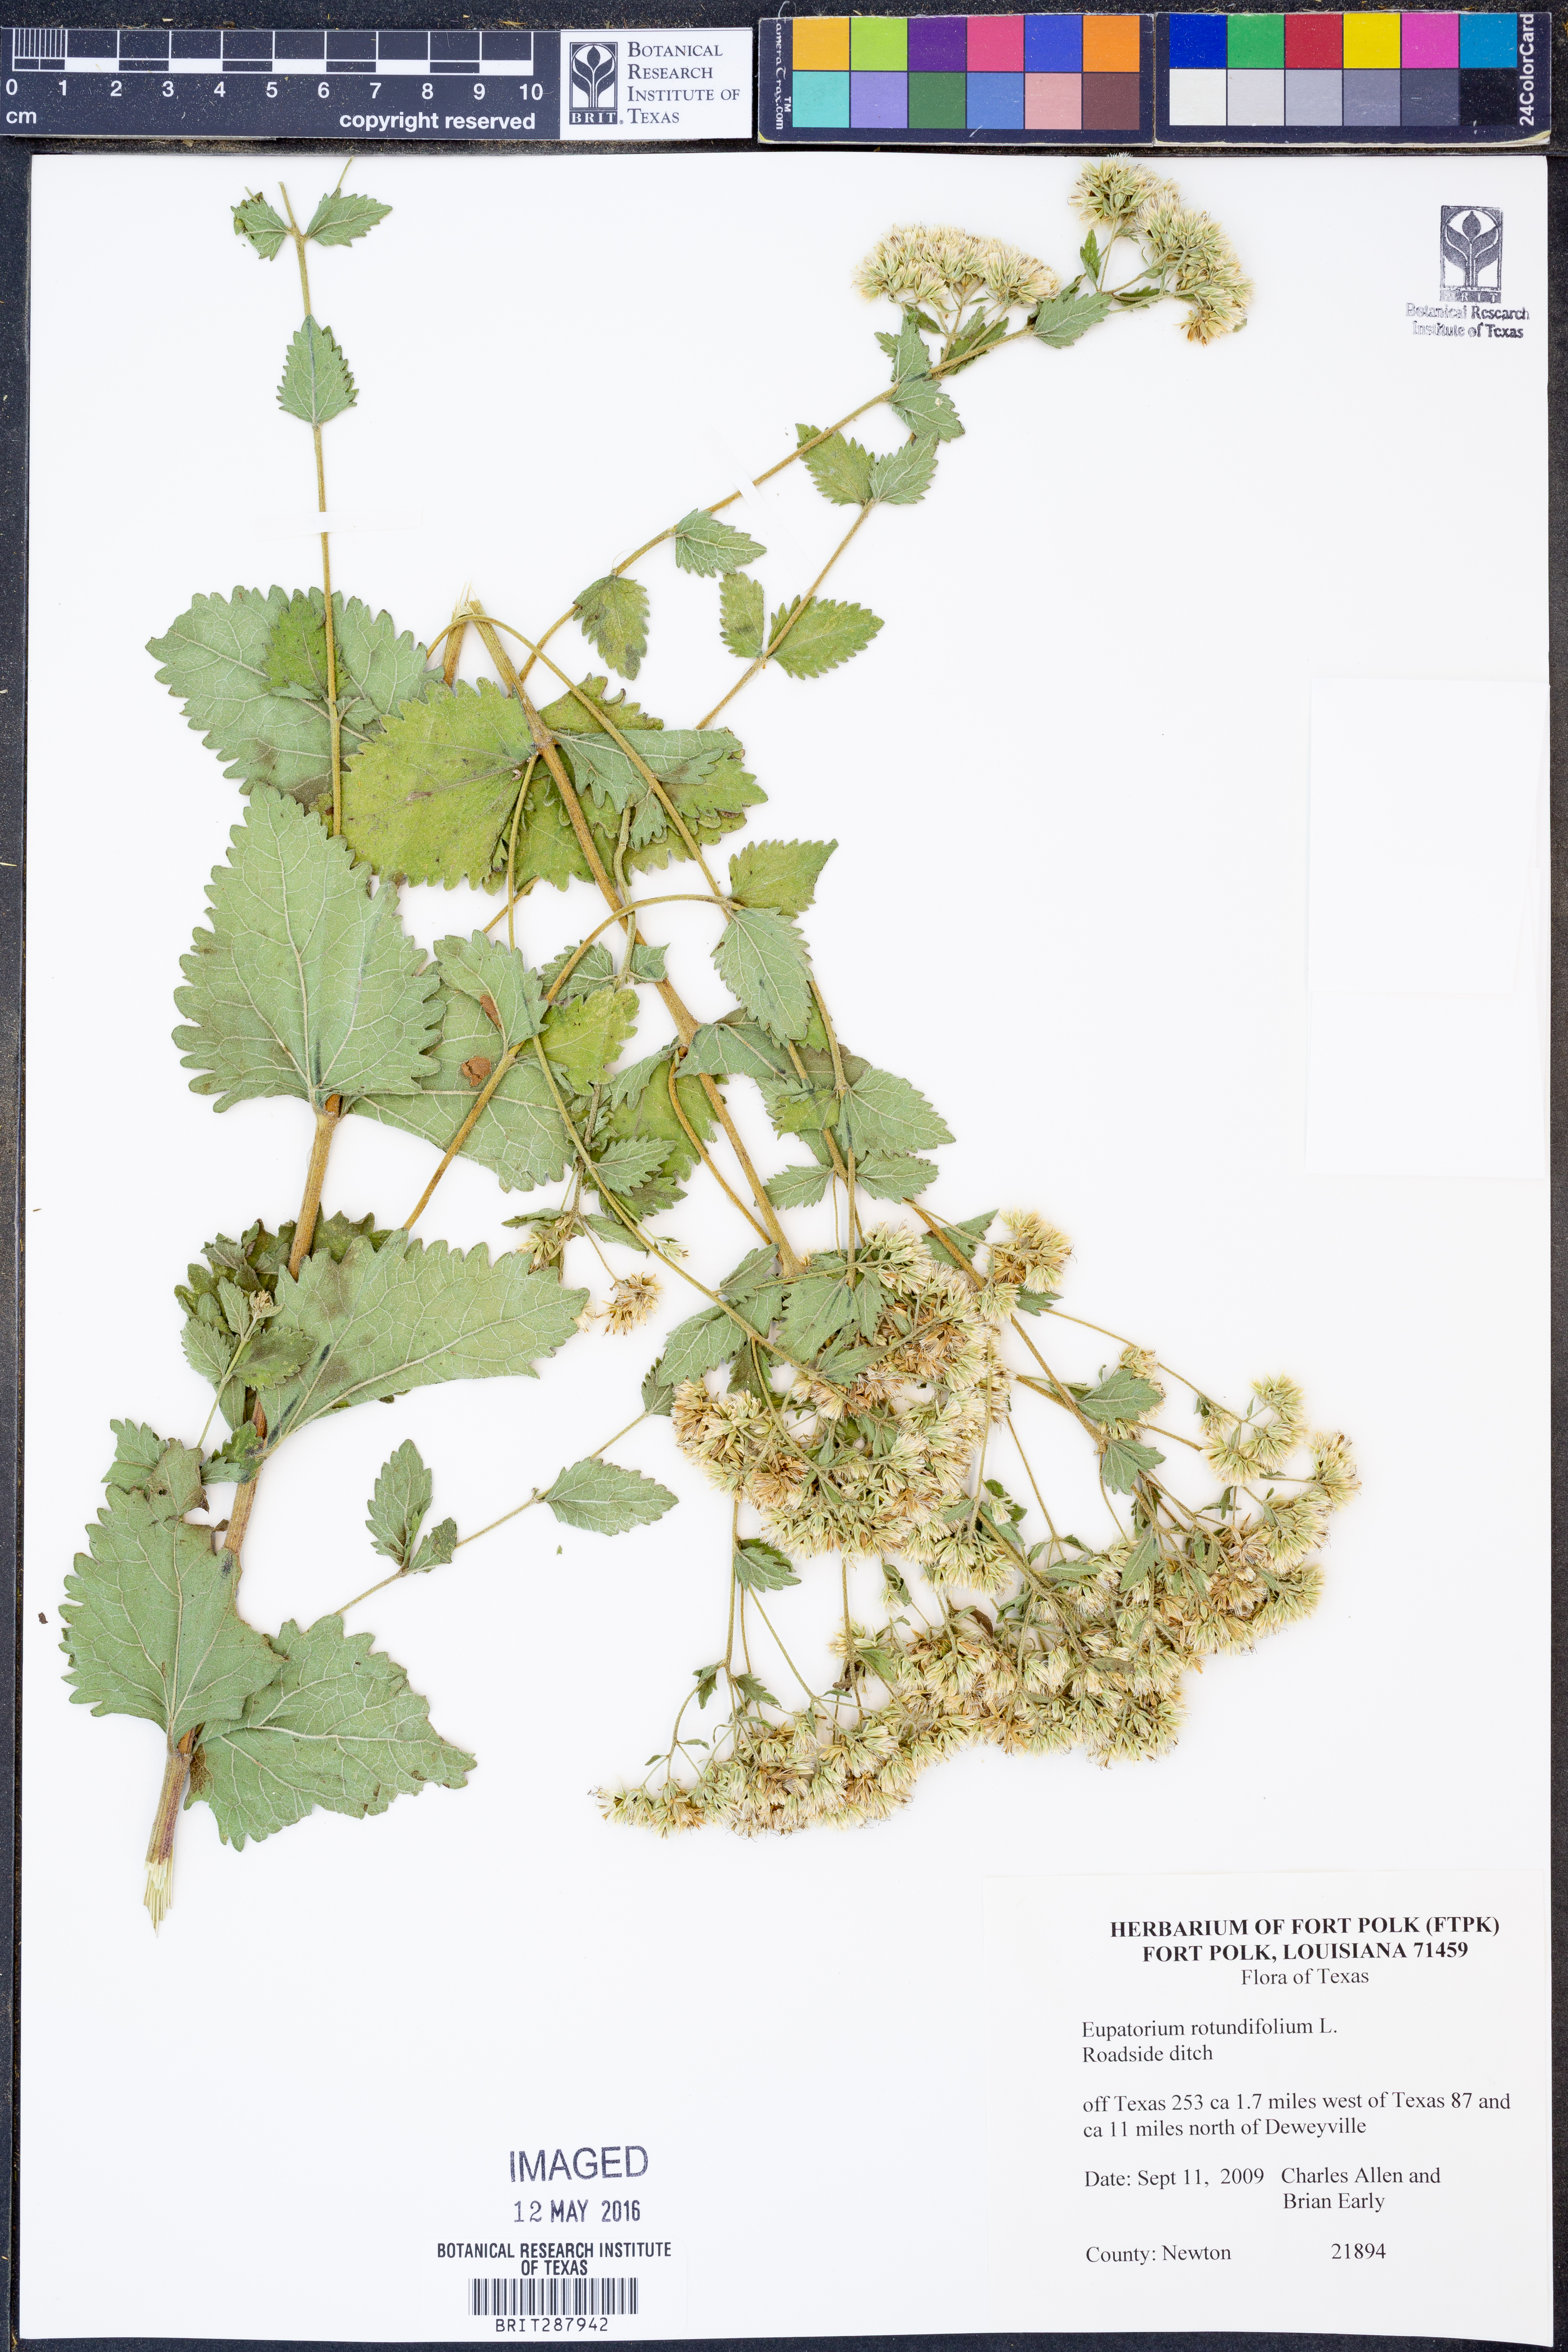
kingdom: Plantae
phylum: Tracheophyta
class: Magnoliopsida
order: Asterales
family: Asteraceae
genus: Eupatorium
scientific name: Eupatorium rotundifolium
